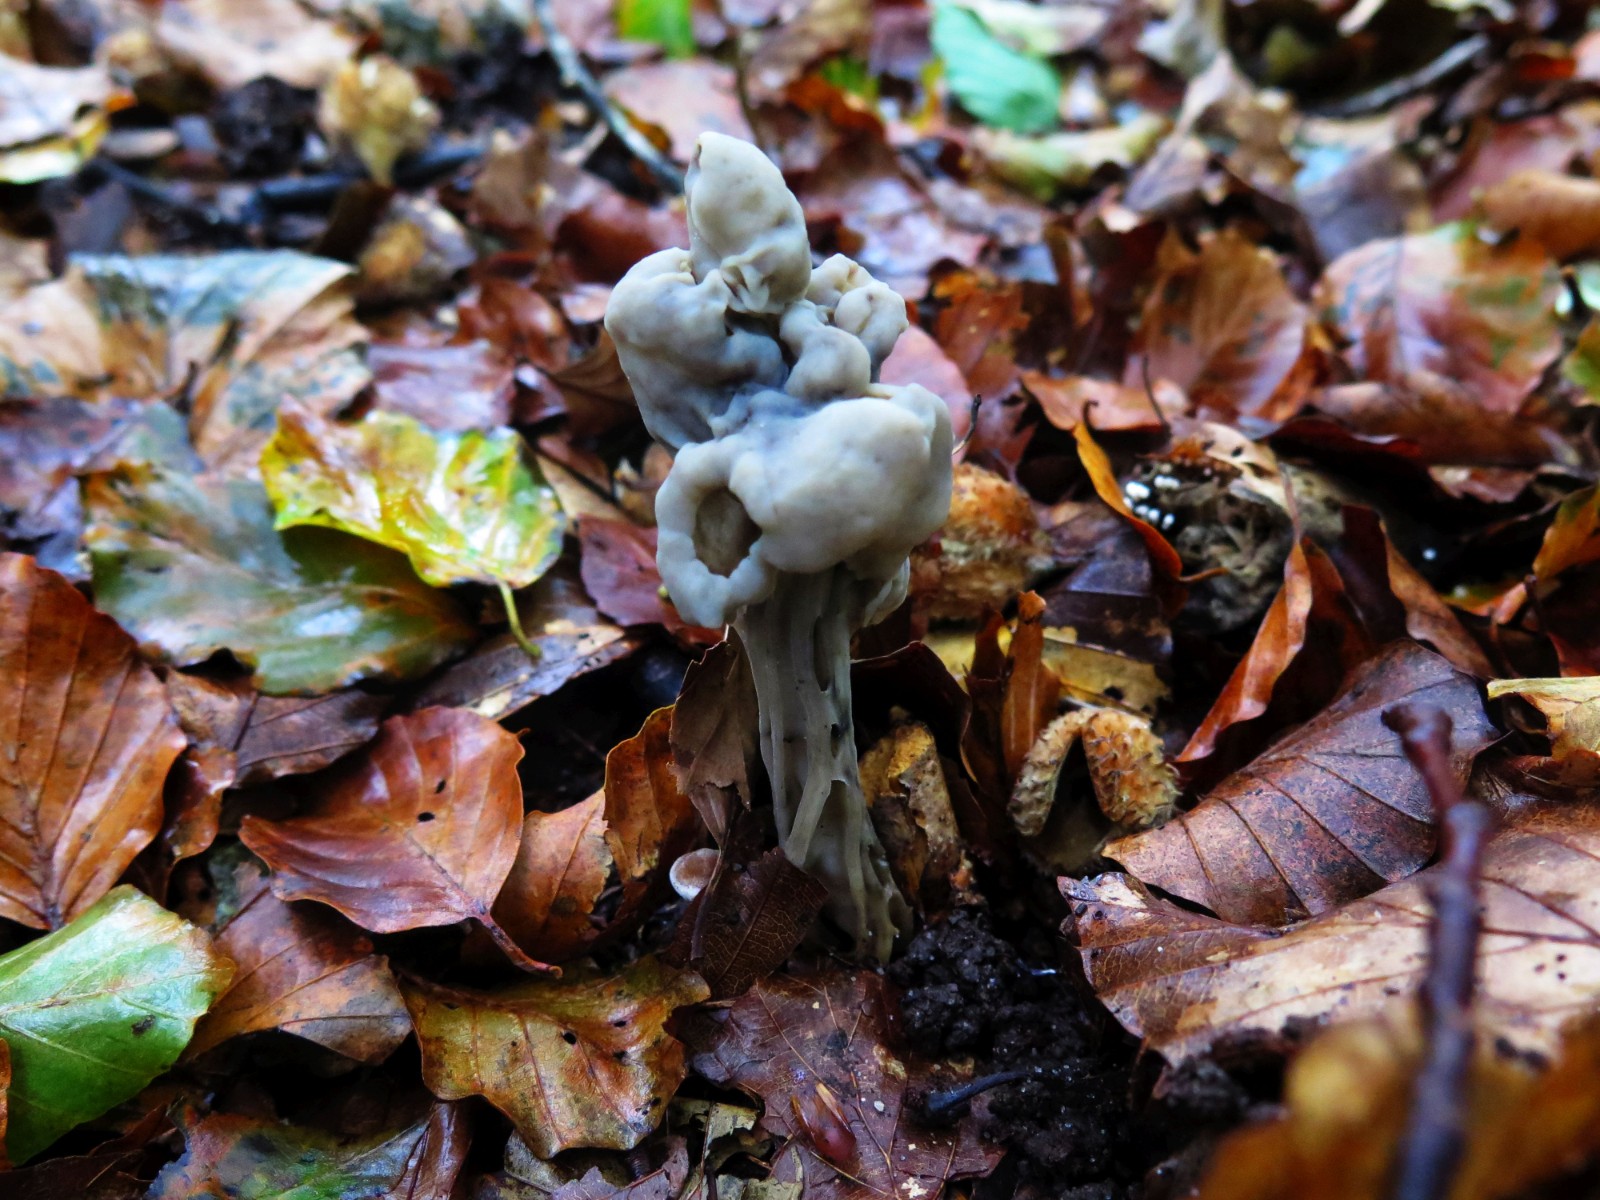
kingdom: Fungi
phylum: Ascomycota
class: Pezizomycetes
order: Pezizales
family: Helvellaceae
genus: Helvella
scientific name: Helvella lacunosa
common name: grubet foldhat
